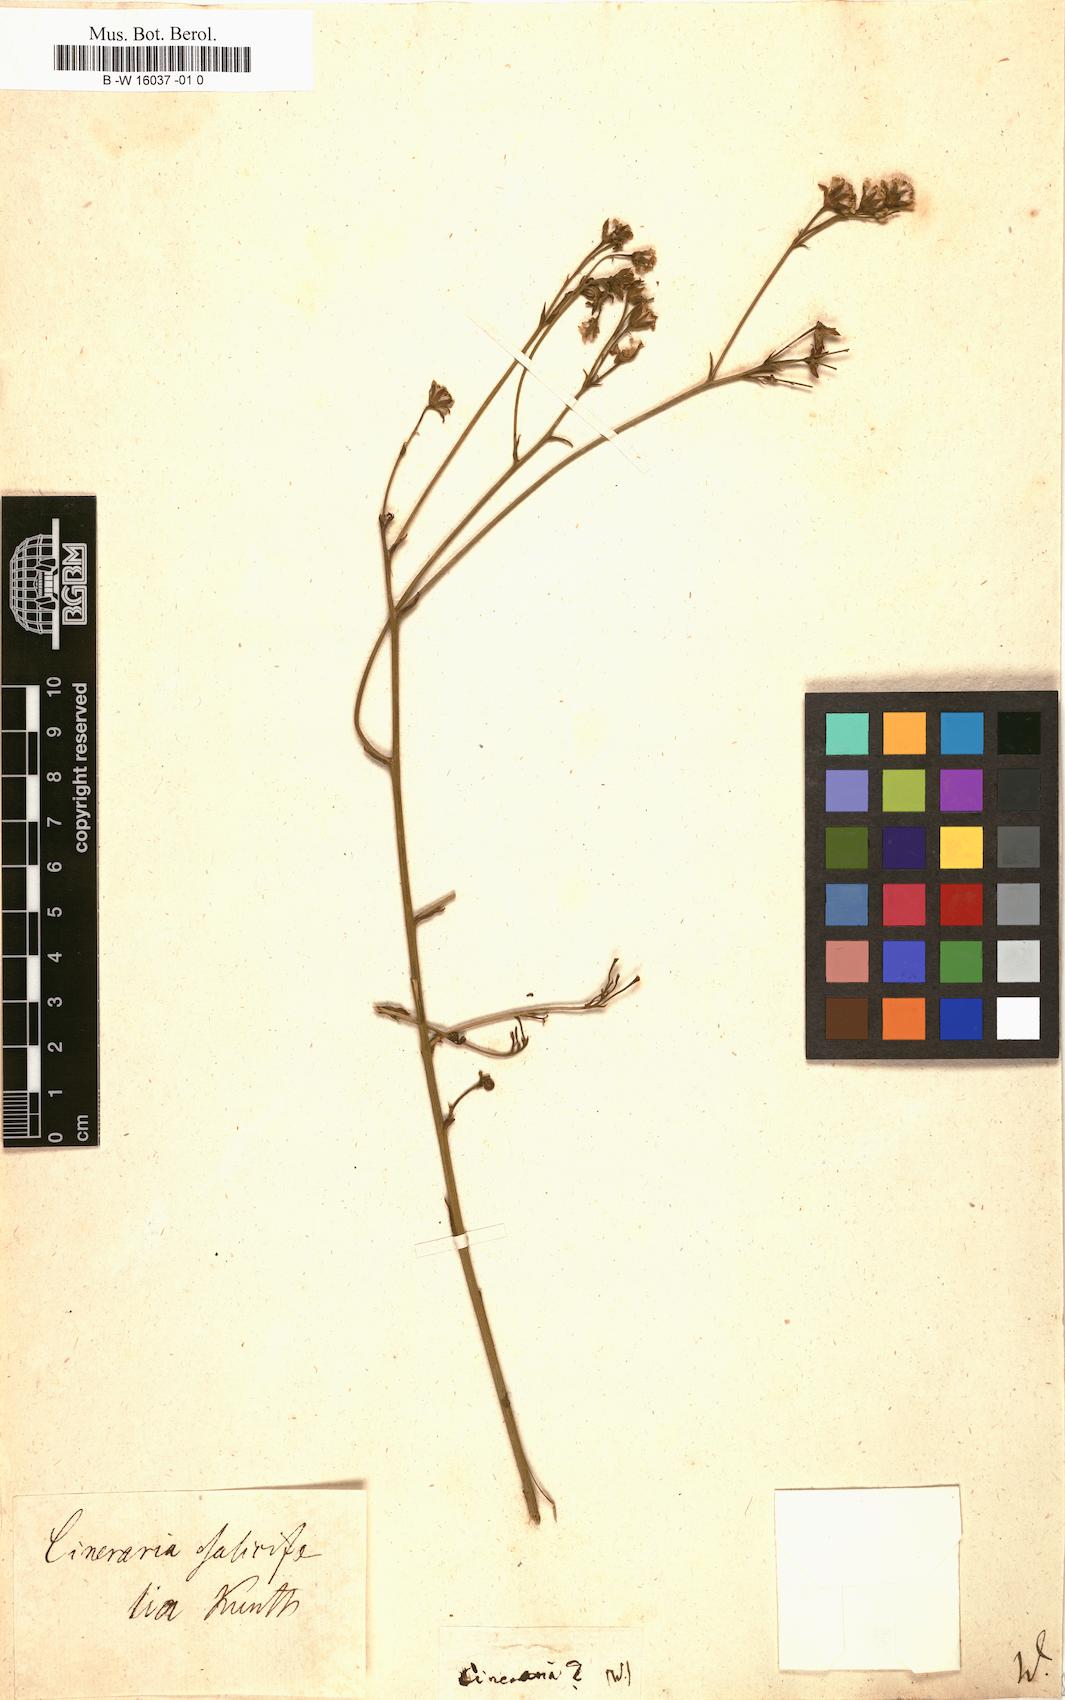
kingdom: Plantae
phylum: Tracheophyta
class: Magnoliopsida
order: Asterales
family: Asteraceae
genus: Barkleyanthus
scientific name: Barkleyanthus salicifolius
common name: Willow ragwort
